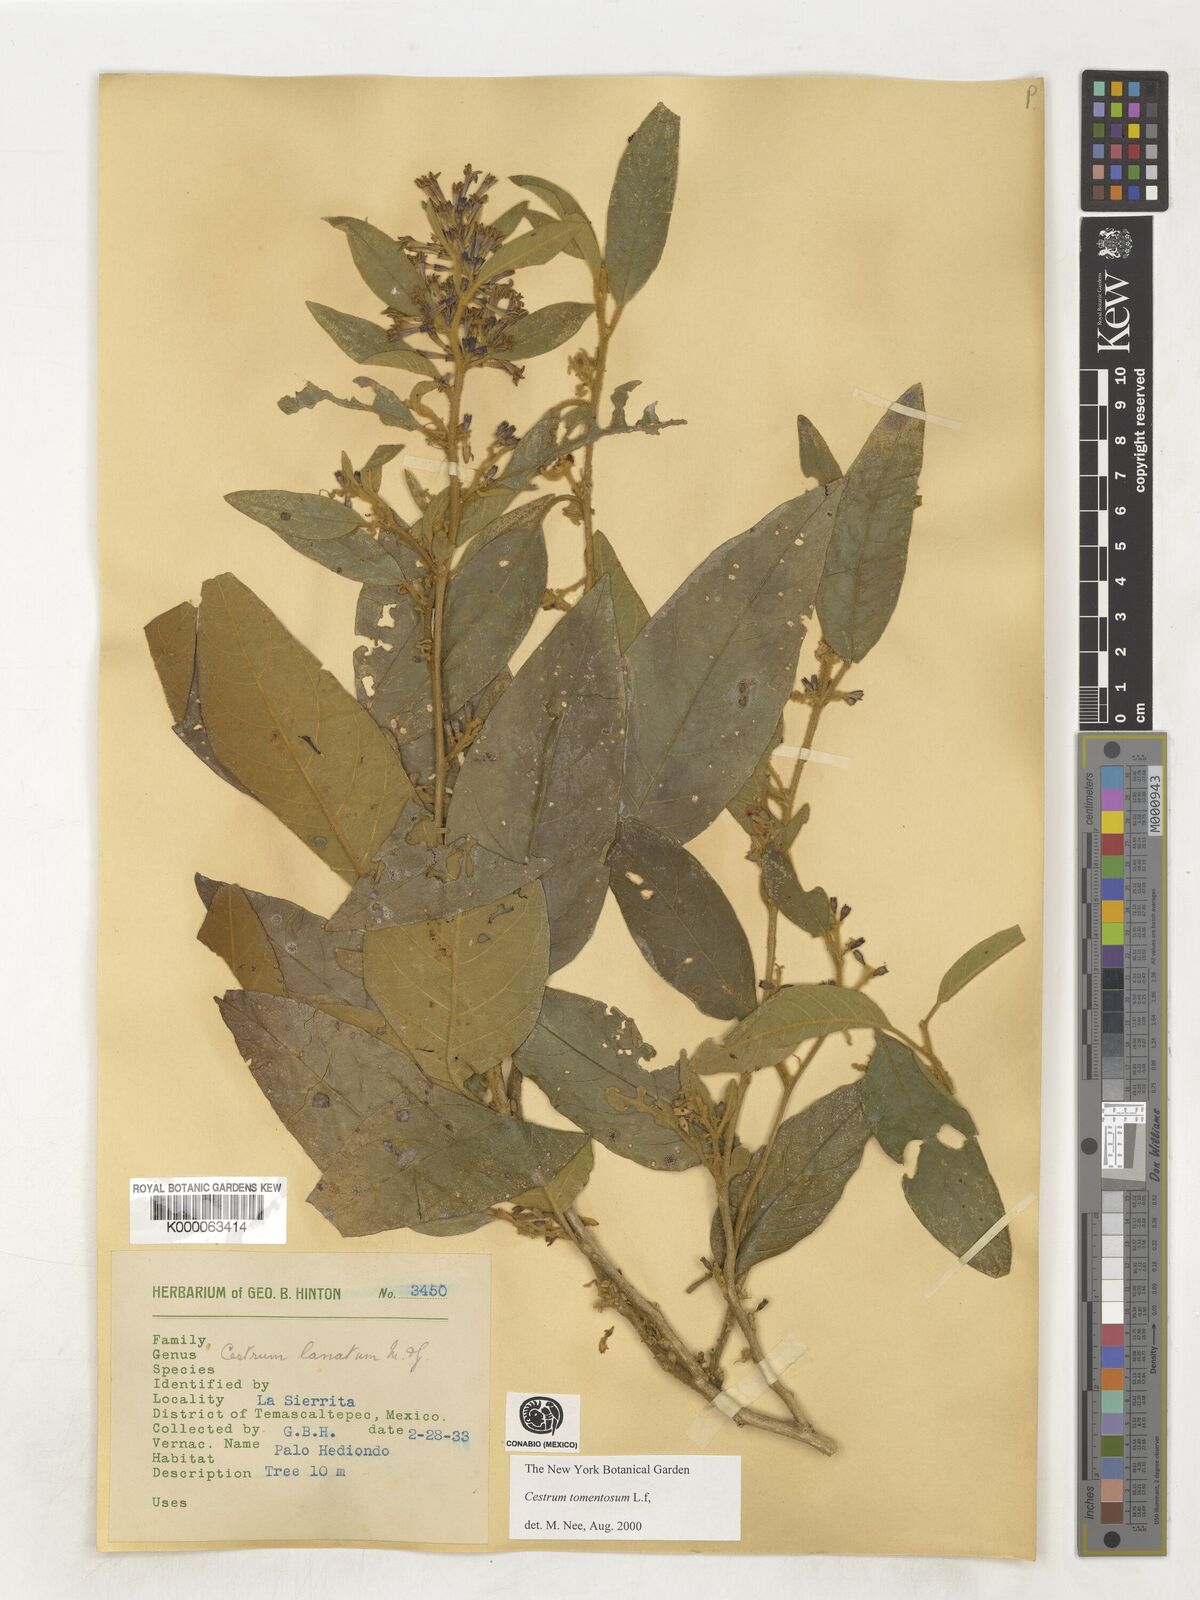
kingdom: Plantae
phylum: Tracheophyta
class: Magnoliopsida
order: Solanales
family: Solanaceae
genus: Cestrum
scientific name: Cestrum tomentosum
